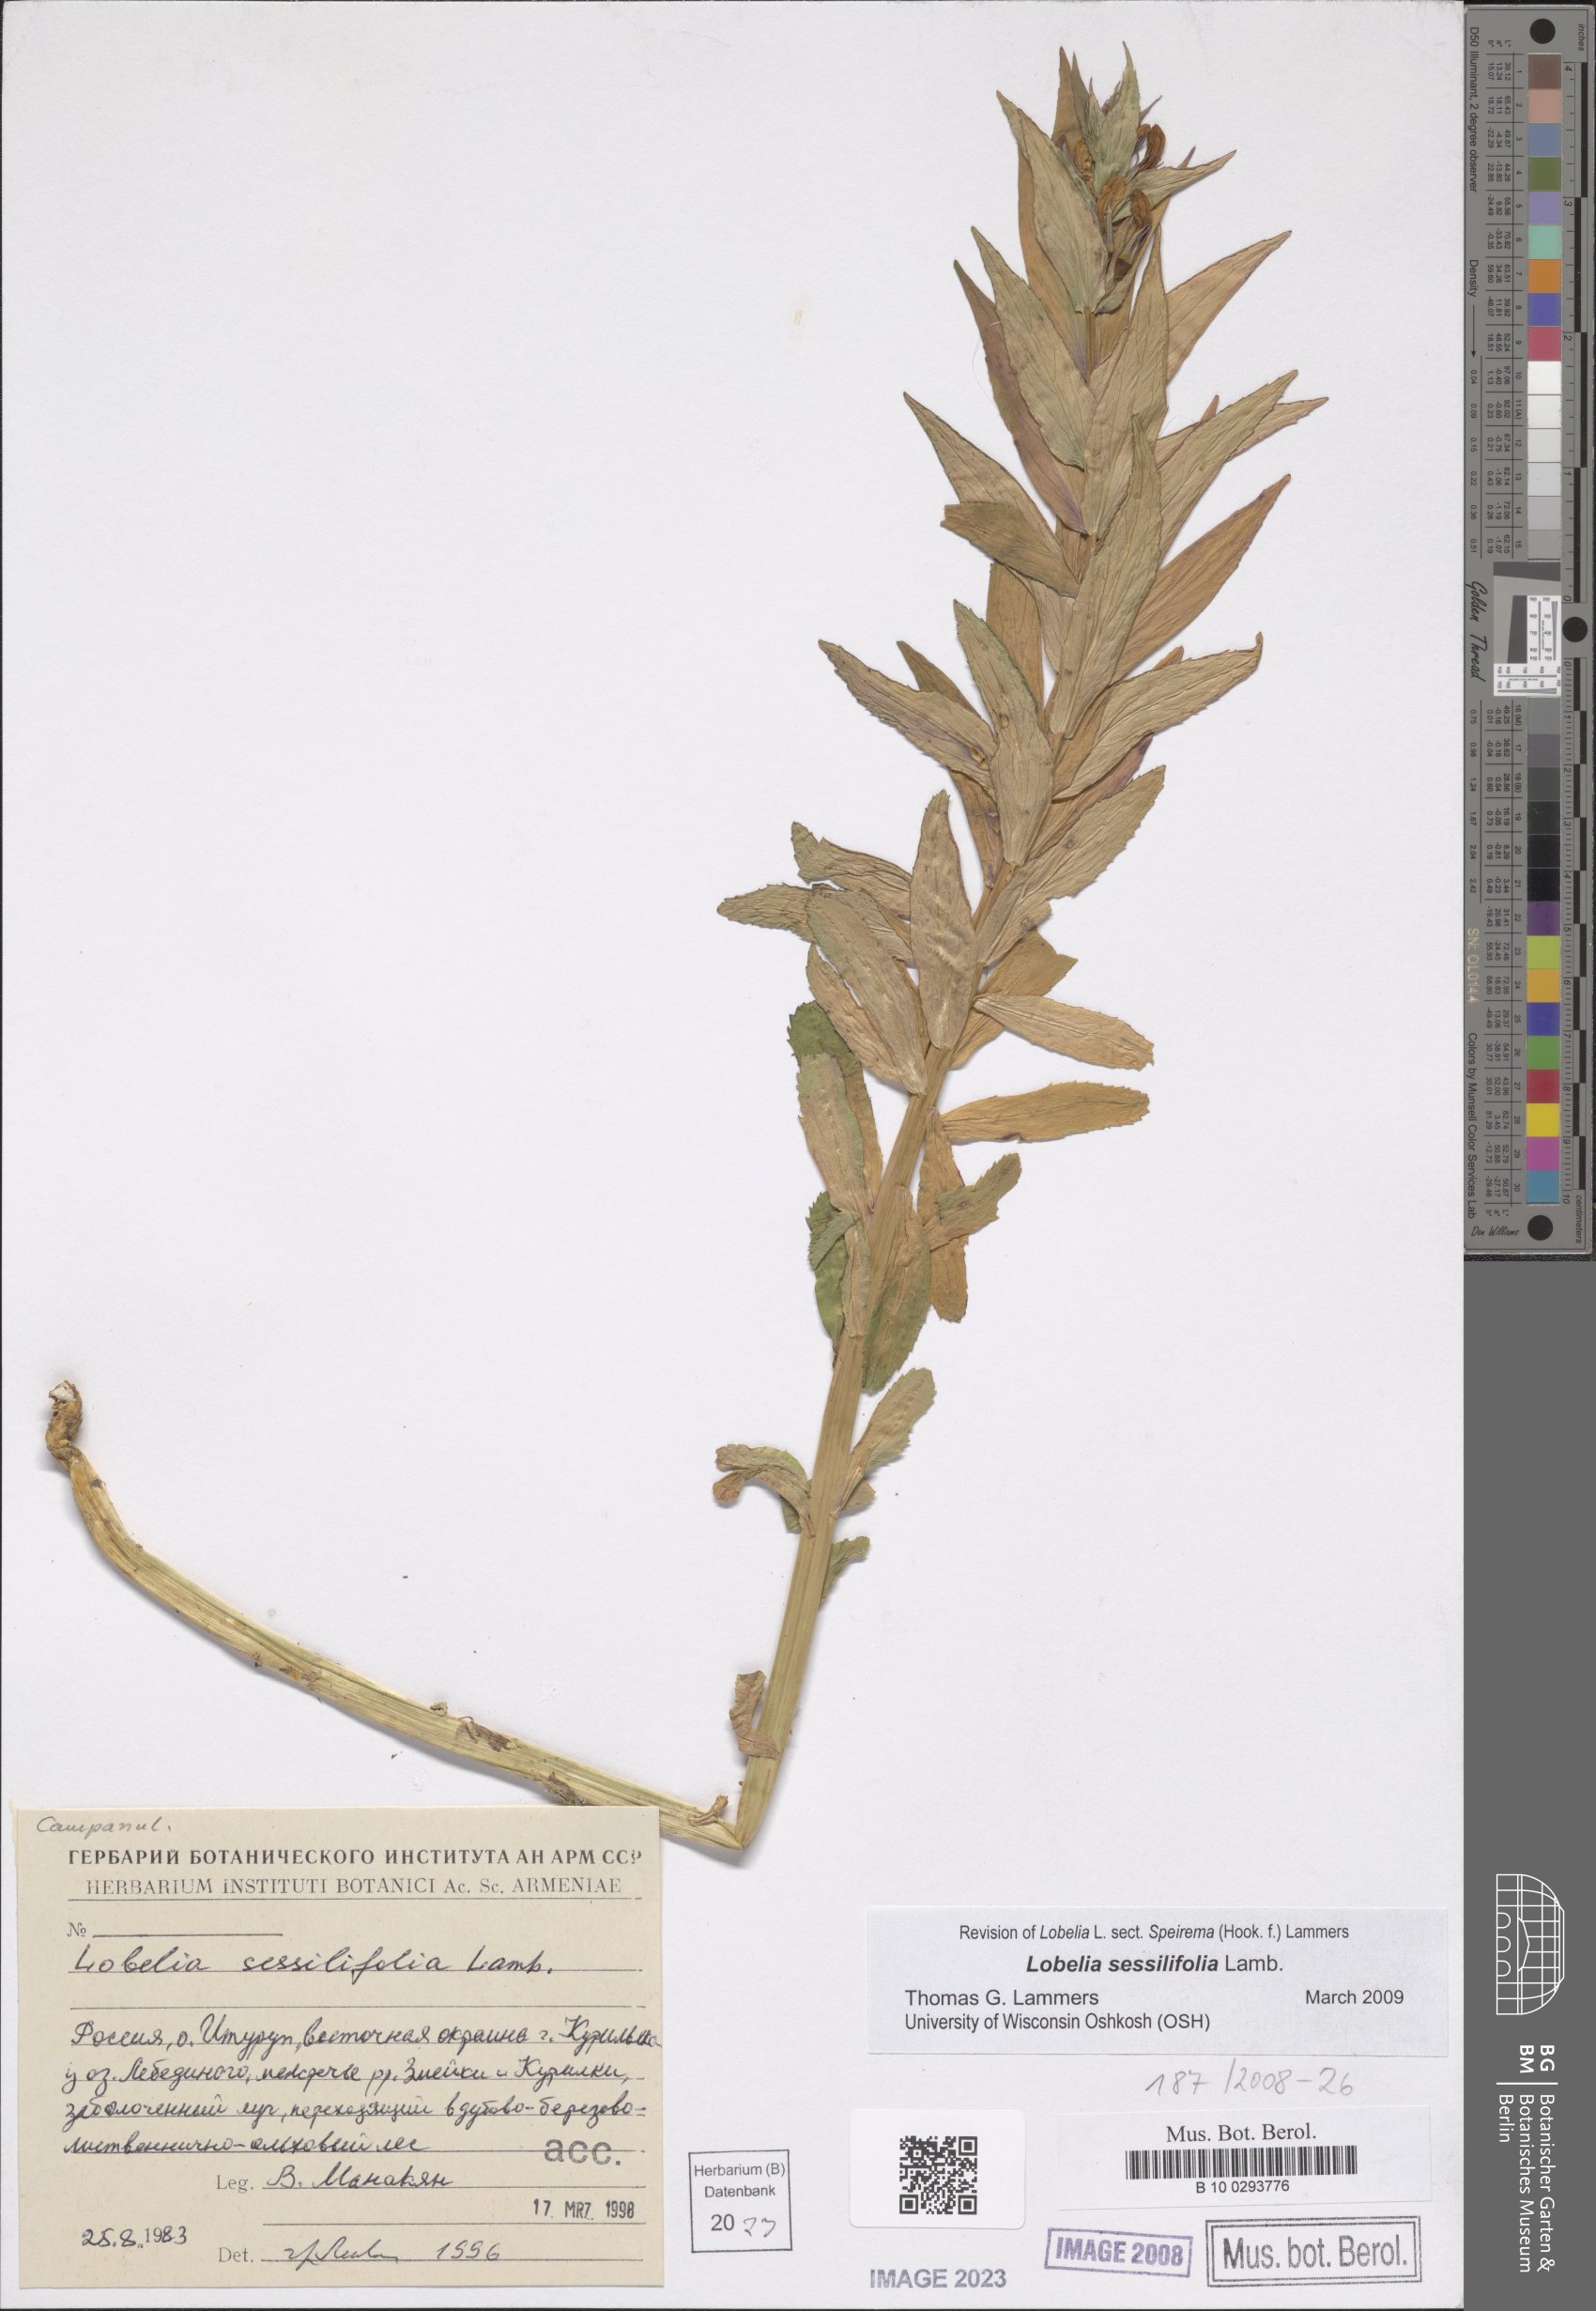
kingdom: Plantae
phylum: Tracheophyta
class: Magnoliopsida
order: Asterales
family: Campanulaceae
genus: Lobelia
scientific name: Lobelia sessilifolia
